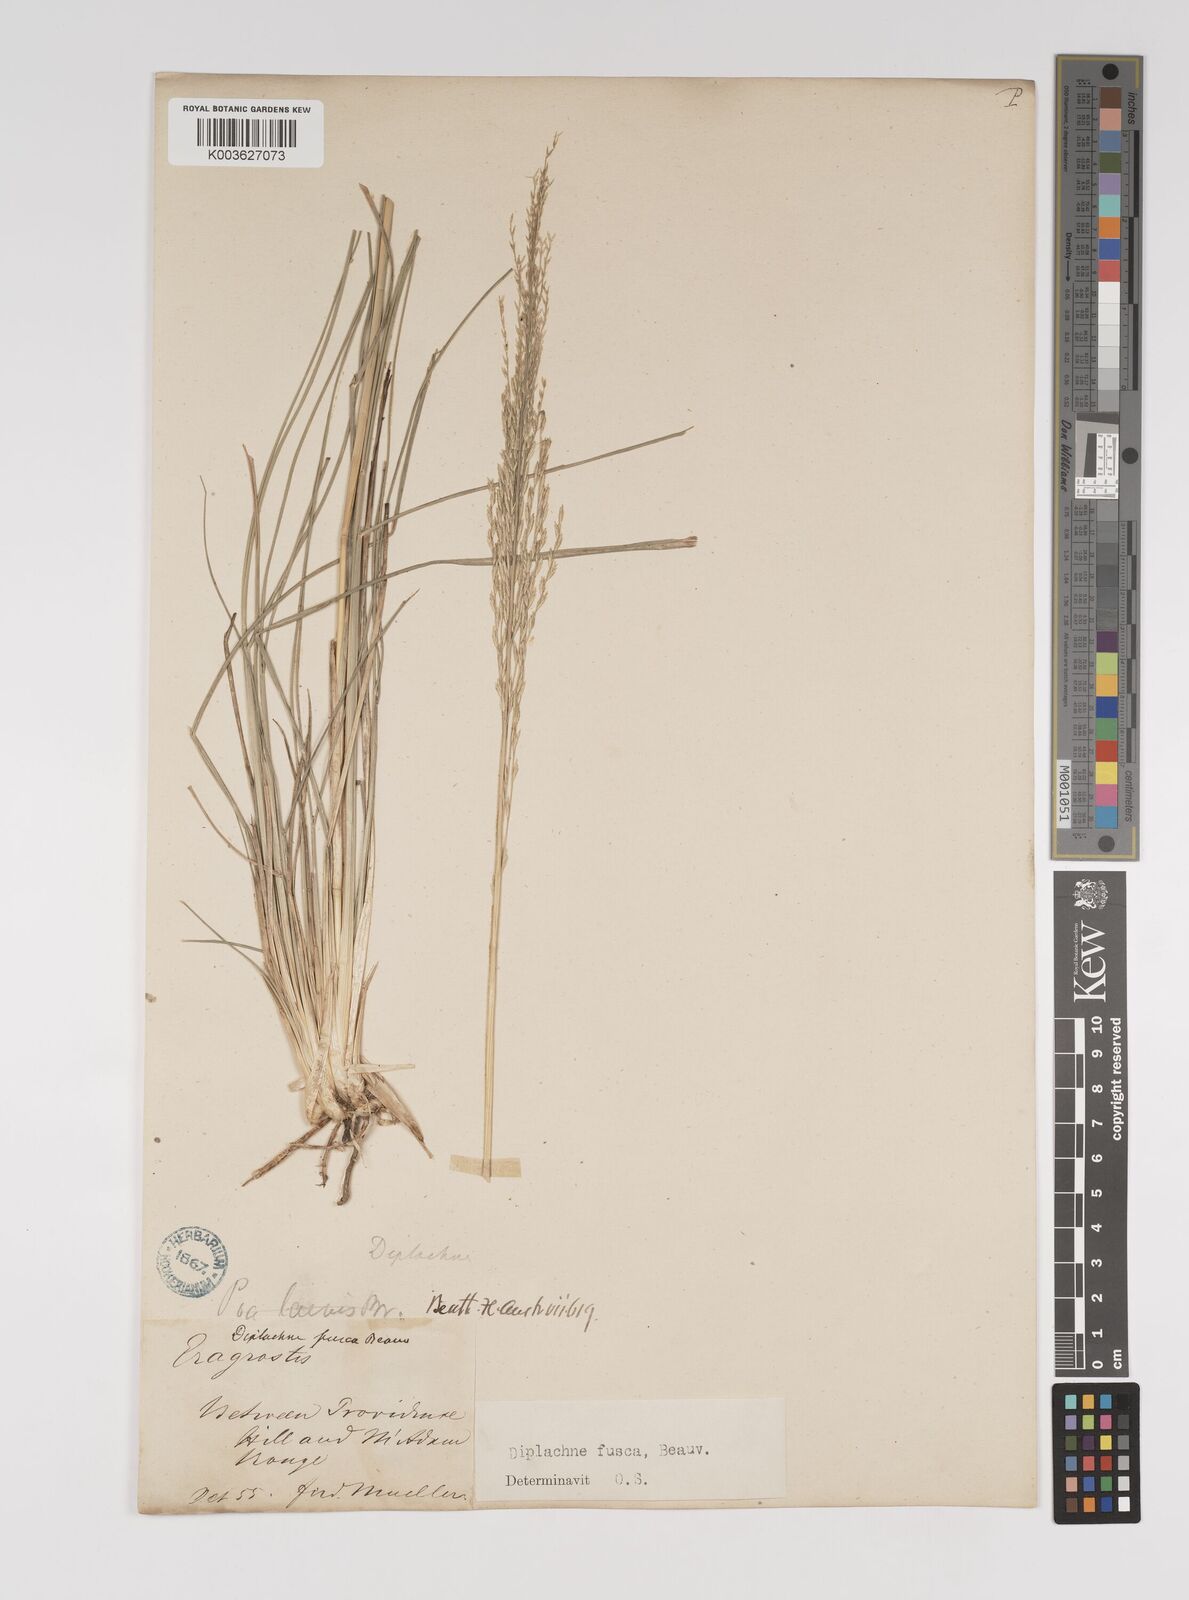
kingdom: Plantae
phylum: Tracheophyta
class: Liliopsida
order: Poales
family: Poaceae
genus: Diplachne
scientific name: Diplachne fusca
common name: Brown beetle grass
